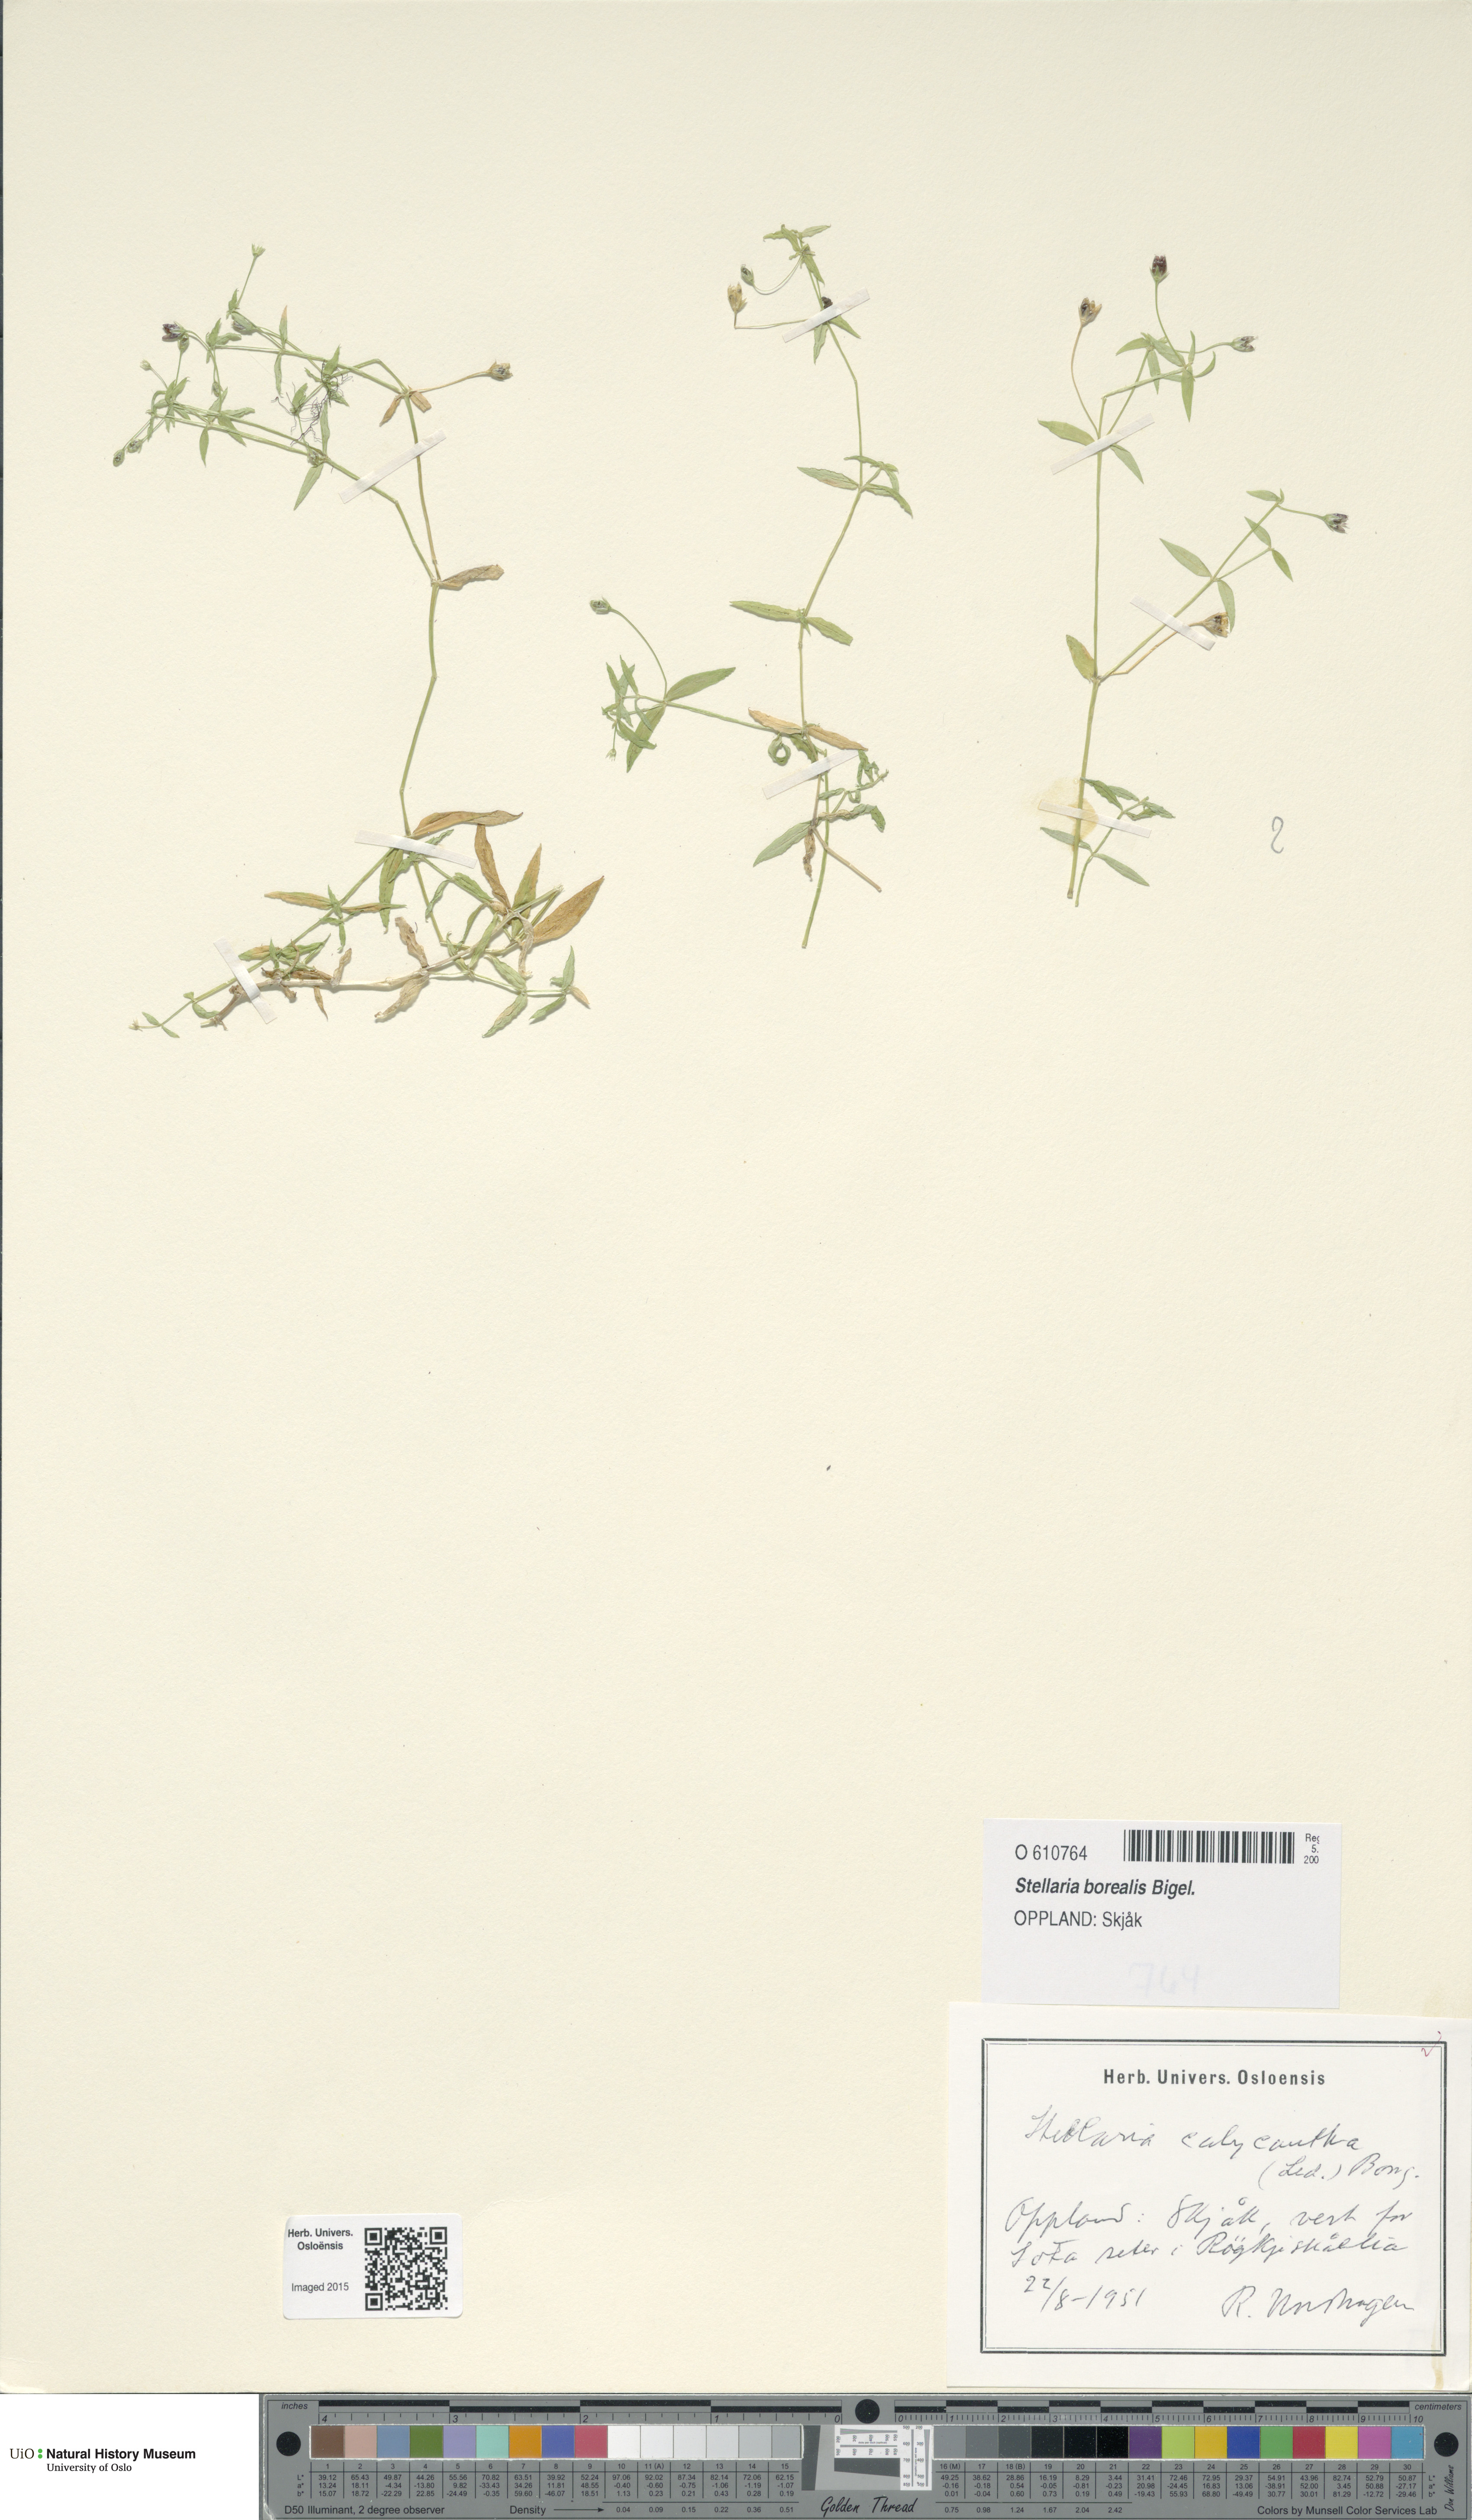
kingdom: Plantae
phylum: Tracheophyta
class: Magnoliopsida
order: Caryophyllales
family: Caryophyllaceae
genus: Stellaria
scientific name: Stellaria borealis
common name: Boreal starwort
